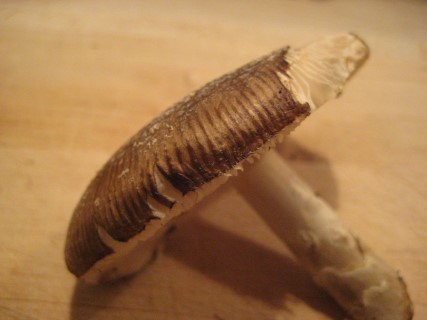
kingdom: Fungi
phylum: Basidiomycota
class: Agaricomycetes
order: Agaricales
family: Amanitaceae
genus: Amanita
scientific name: Amanita pantherina
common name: panter-fluesvamp
